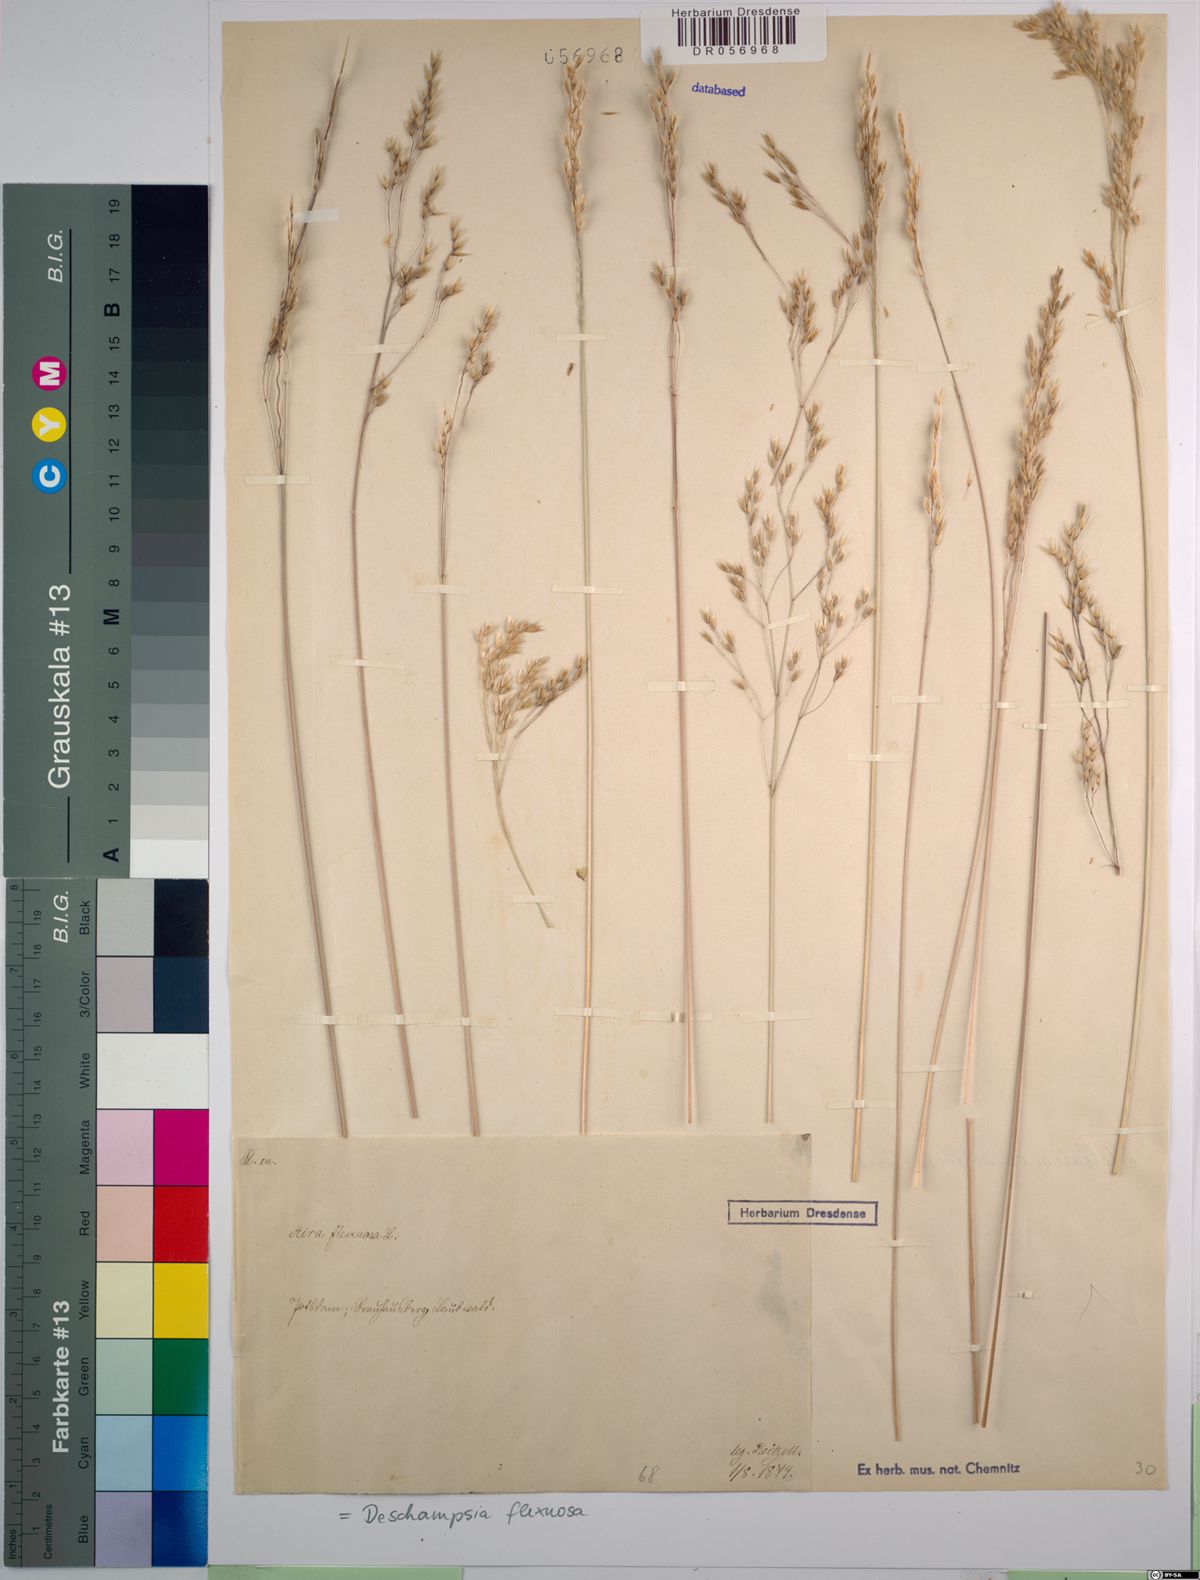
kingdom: Plantae
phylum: Tracheophyta
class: Liliopsida
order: Poales
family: Poaceae
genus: Avenella
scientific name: Avenella flexuosa
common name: Wavy hairgrass
